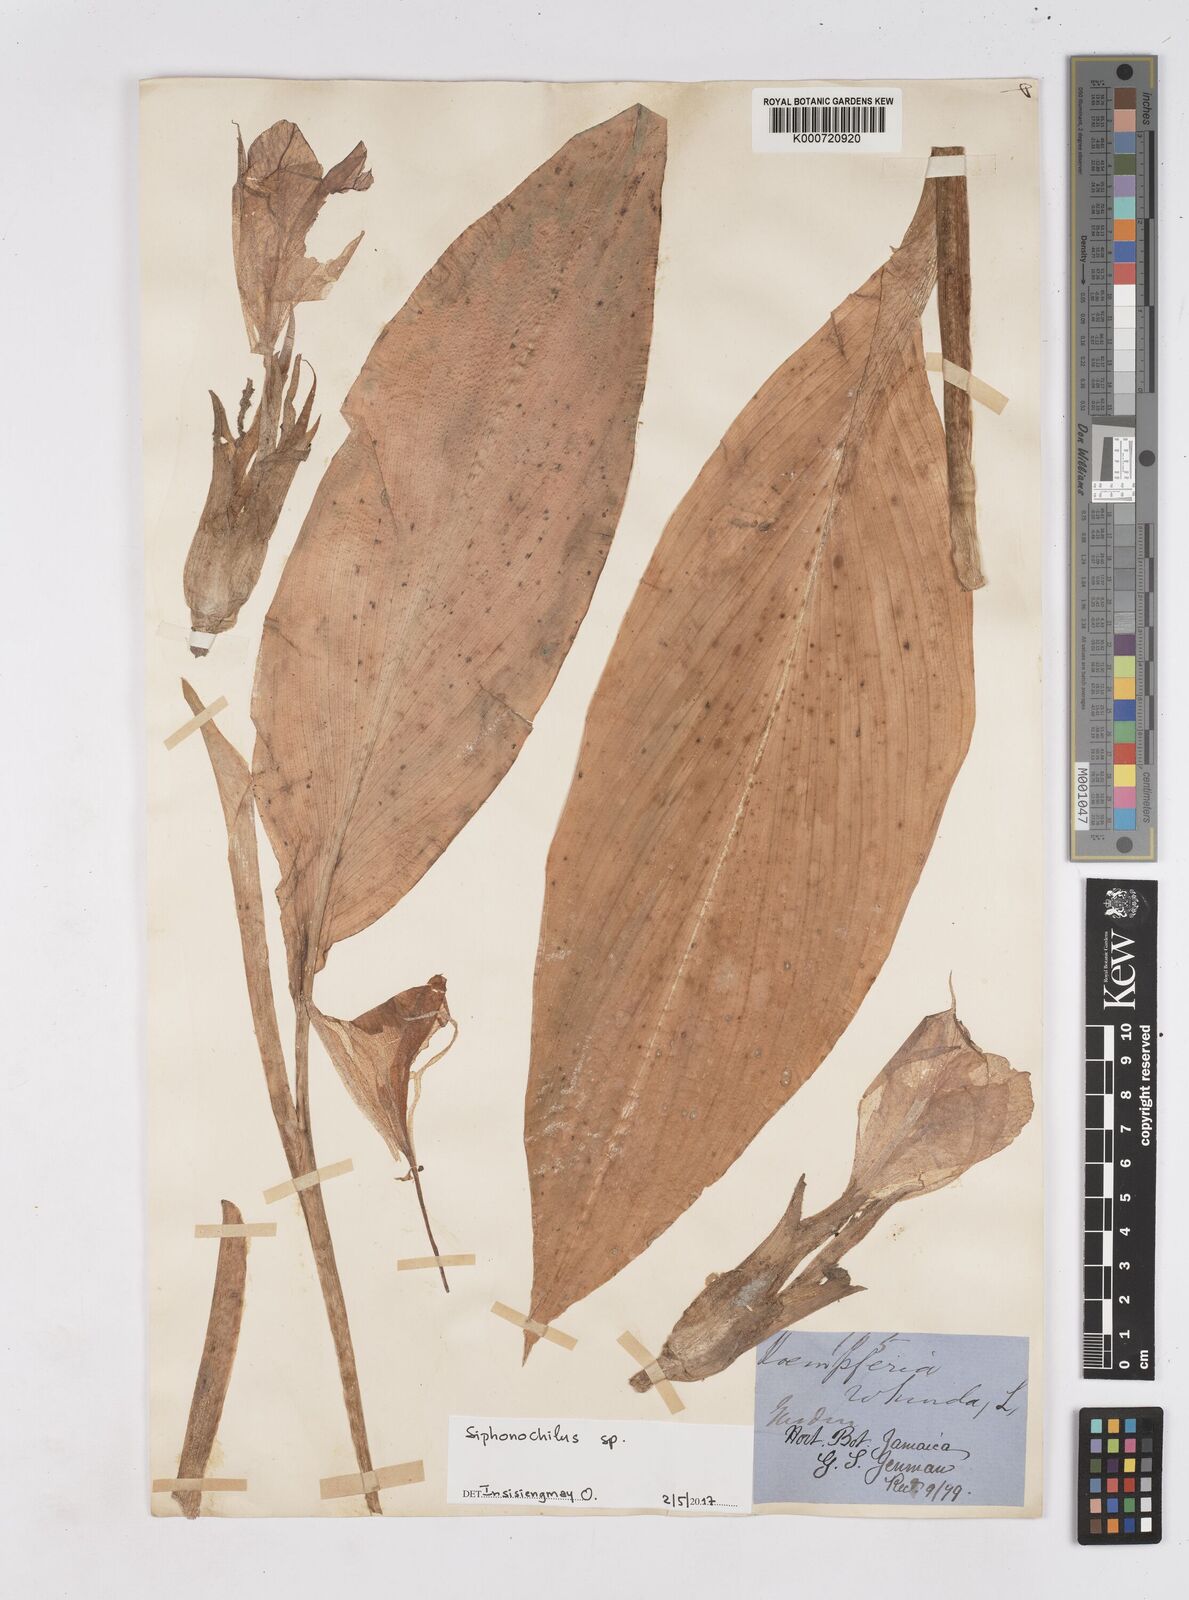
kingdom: Plantae
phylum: Tracheophyta
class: Liliopsida
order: Zingiberales
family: Zingiberaceae
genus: Siphonochilus
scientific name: Siphonochilus
